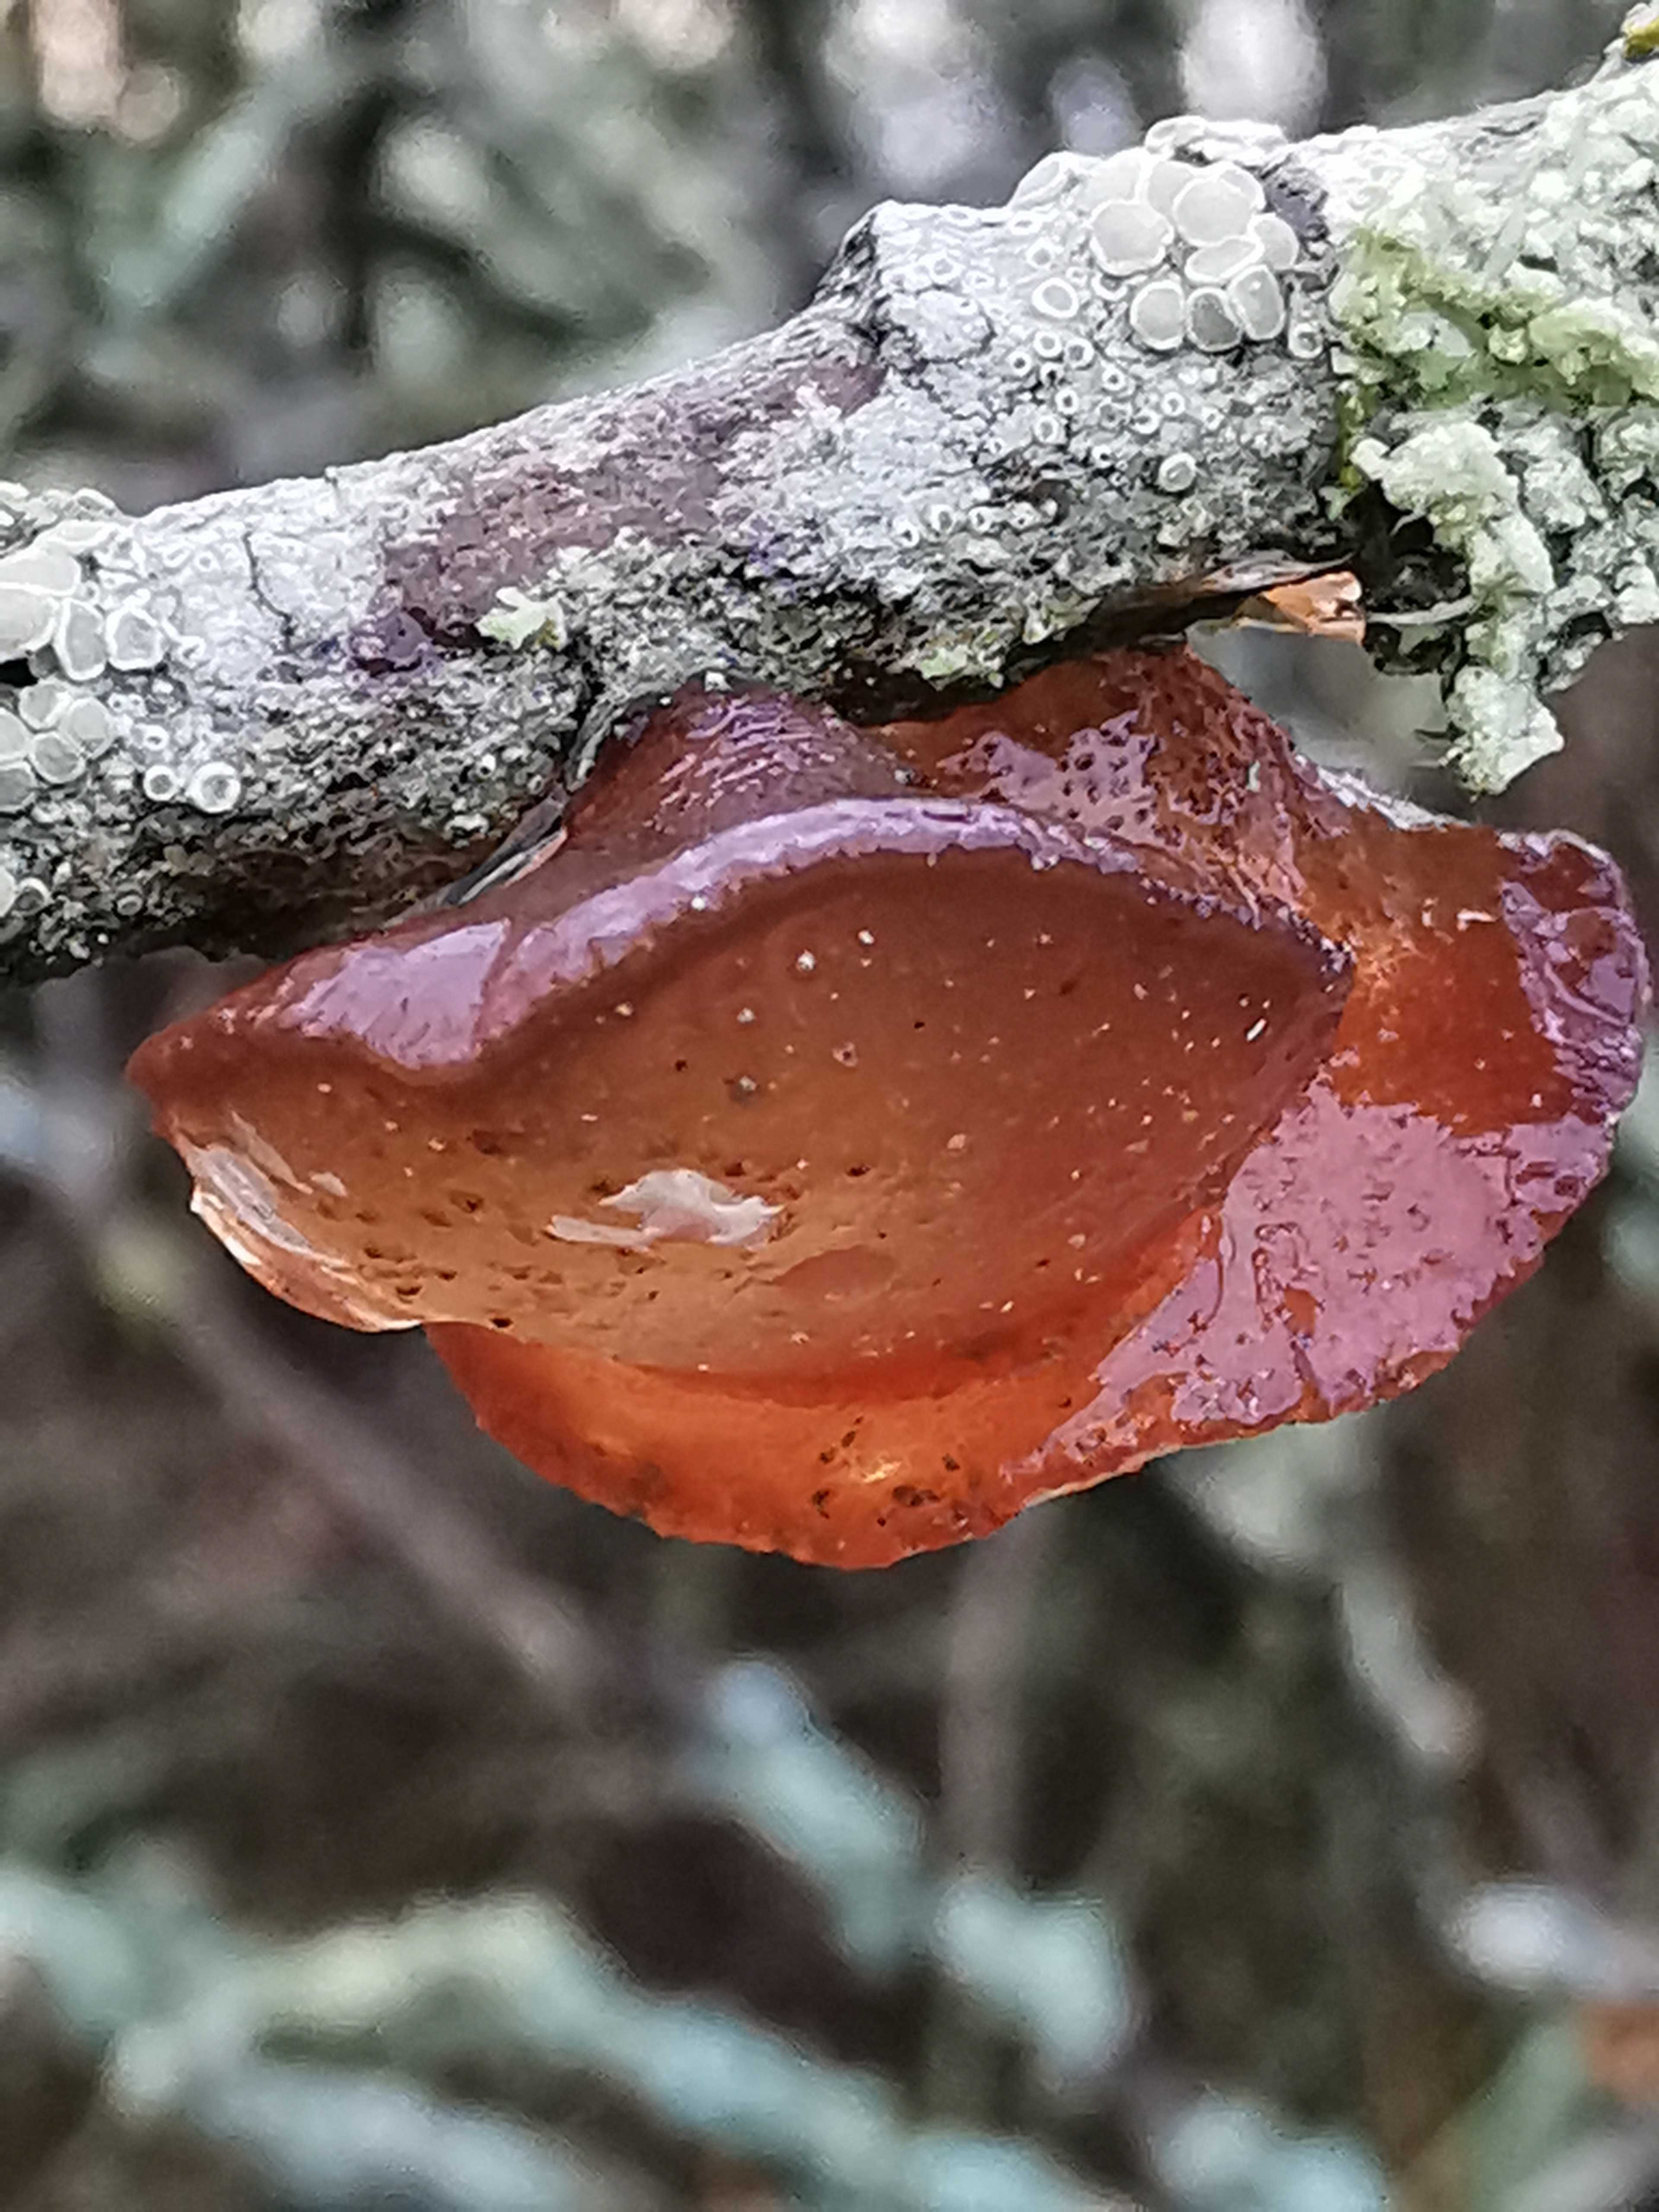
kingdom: Fungi
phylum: Basidiomycota
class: Agaricomycetes
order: Auriculariales
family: Auriculariaceae
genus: Exidia
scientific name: Exidia recisa
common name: pile-bævretop
